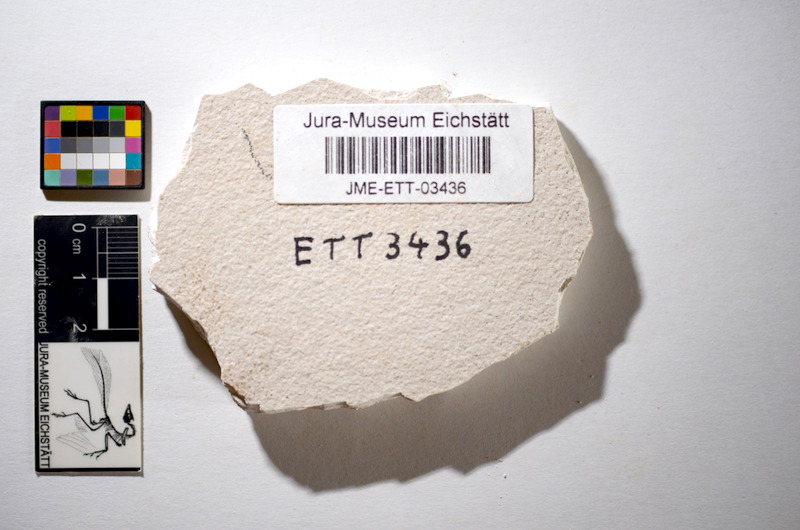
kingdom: Animalia
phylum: Chordata
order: Salmoniformes
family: Orthogonikleithridae
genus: Orthogonikleithrus
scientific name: Orthogonikleithrus hoelli
